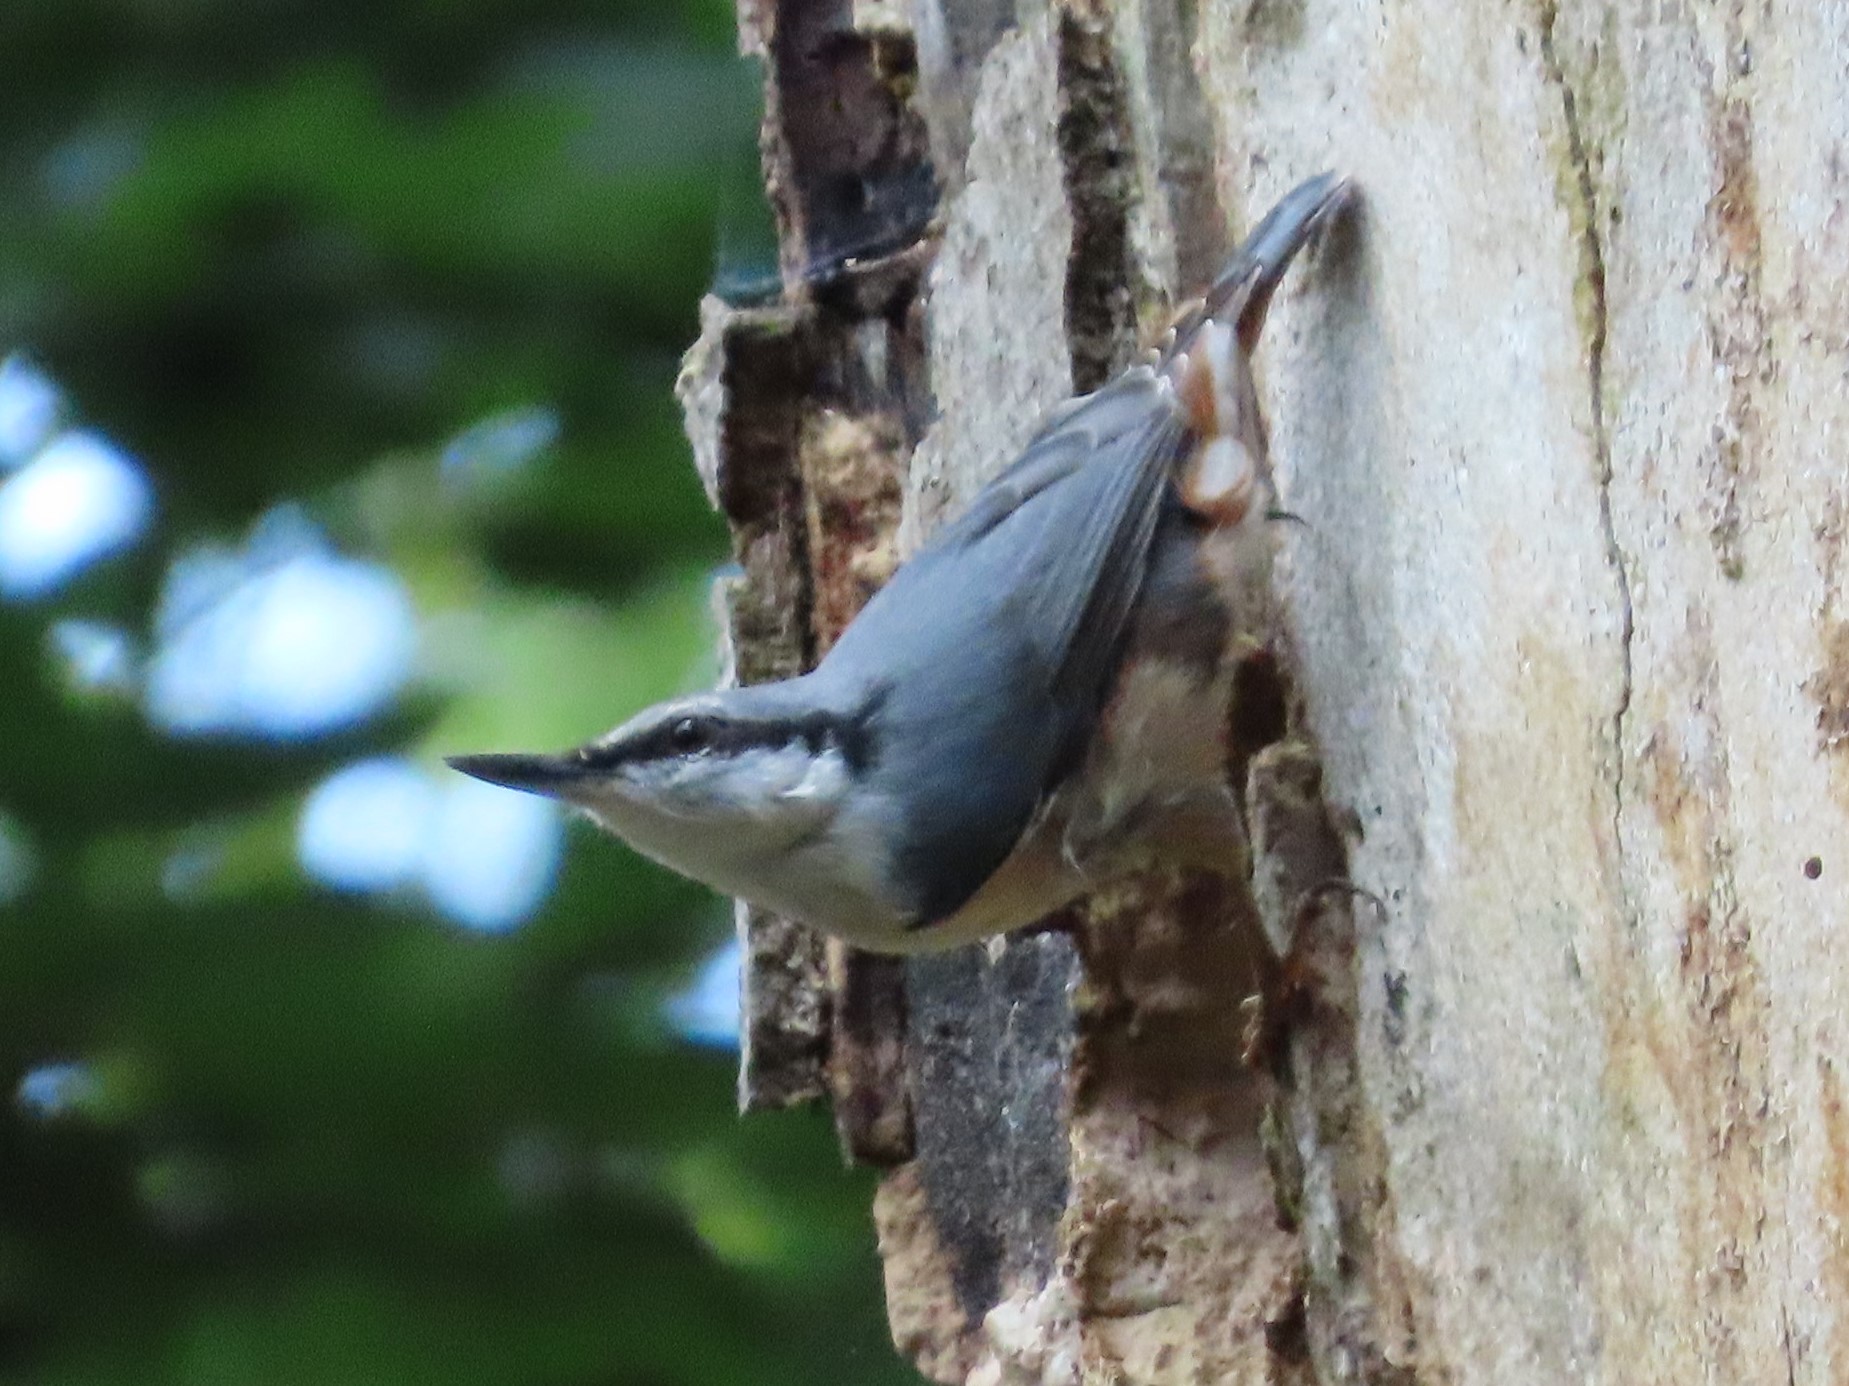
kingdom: Animalia
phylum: Chordata
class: Aves
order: Passeriformes
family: Sittidae
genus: Sitta
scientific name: Sitta europaea
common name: Spætmejse
